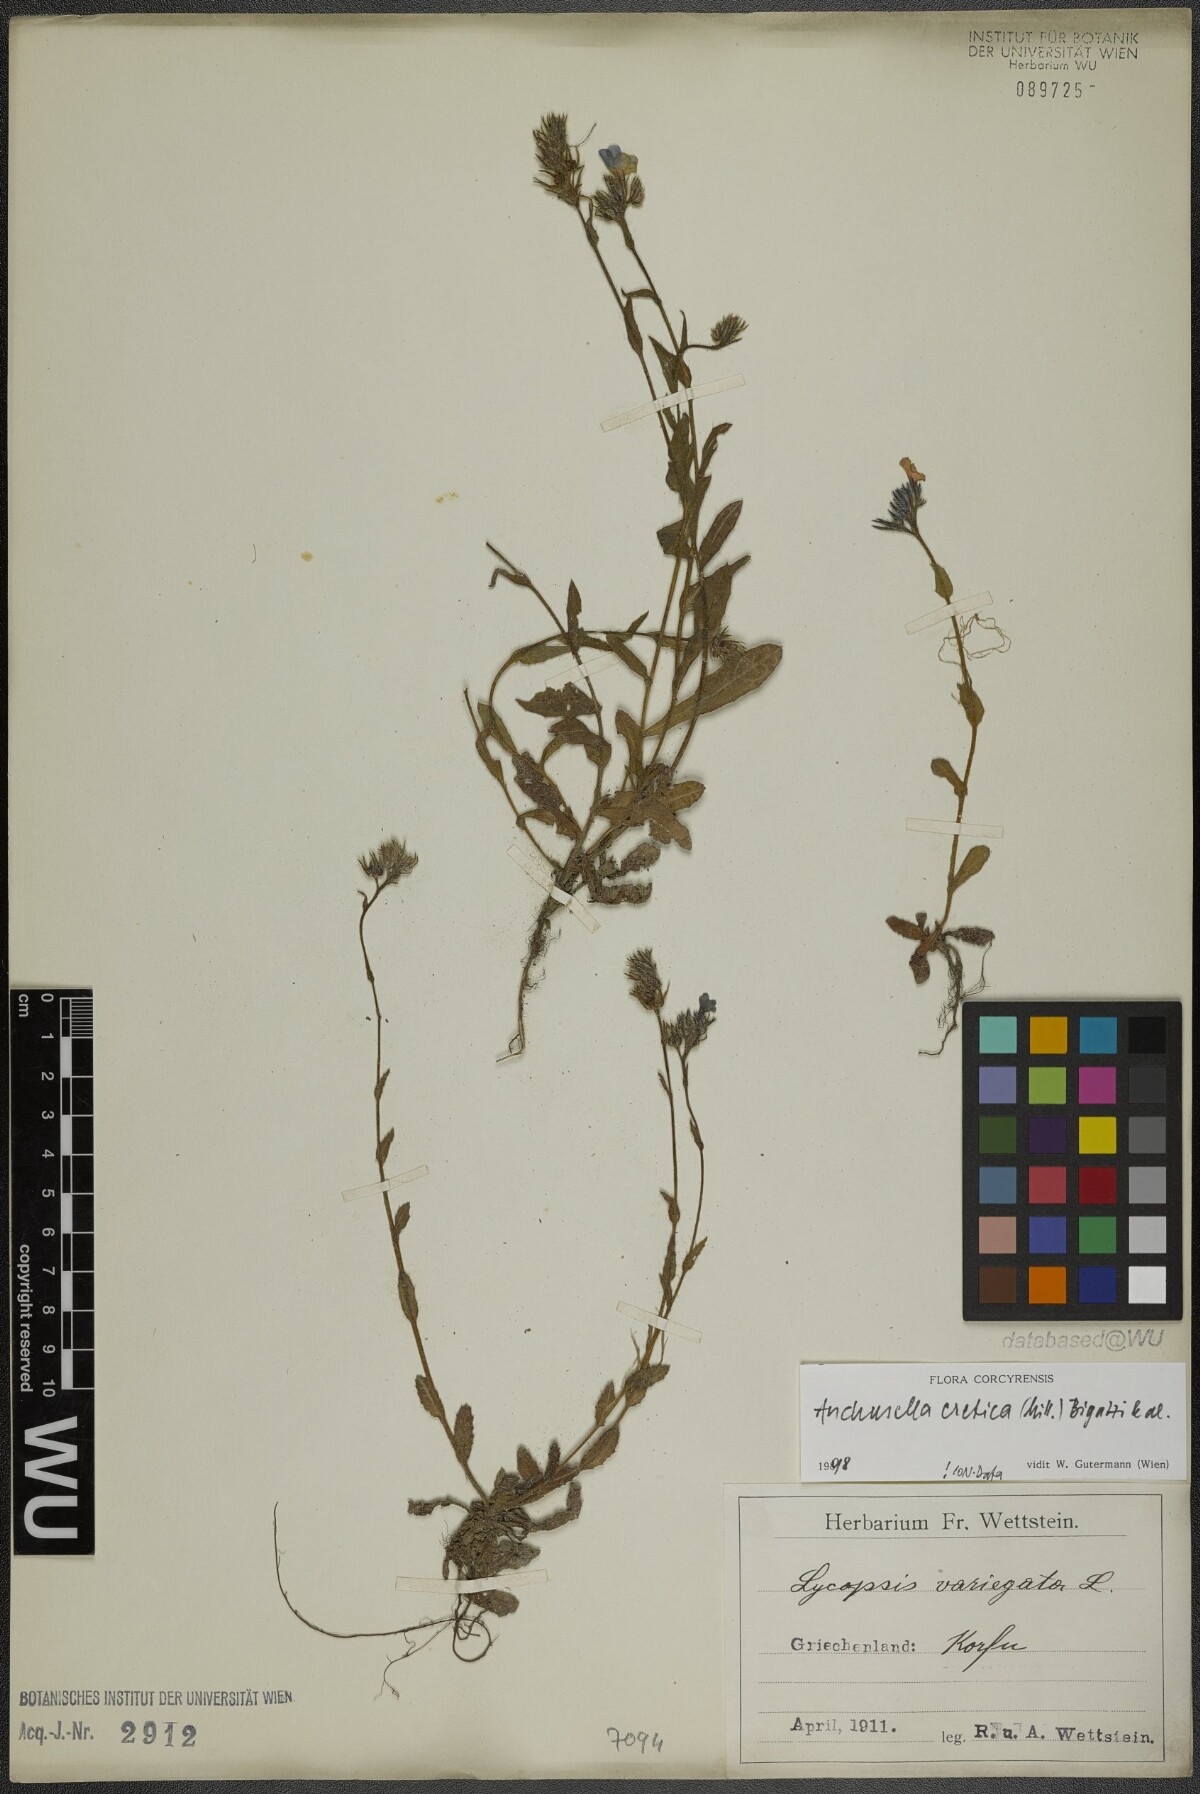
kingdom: Plantae
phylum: Tracheophyta
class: Magnoliopsida
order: Boraginales
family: Boraginaceae
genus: Anchusella
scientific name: Anchusella cretica
